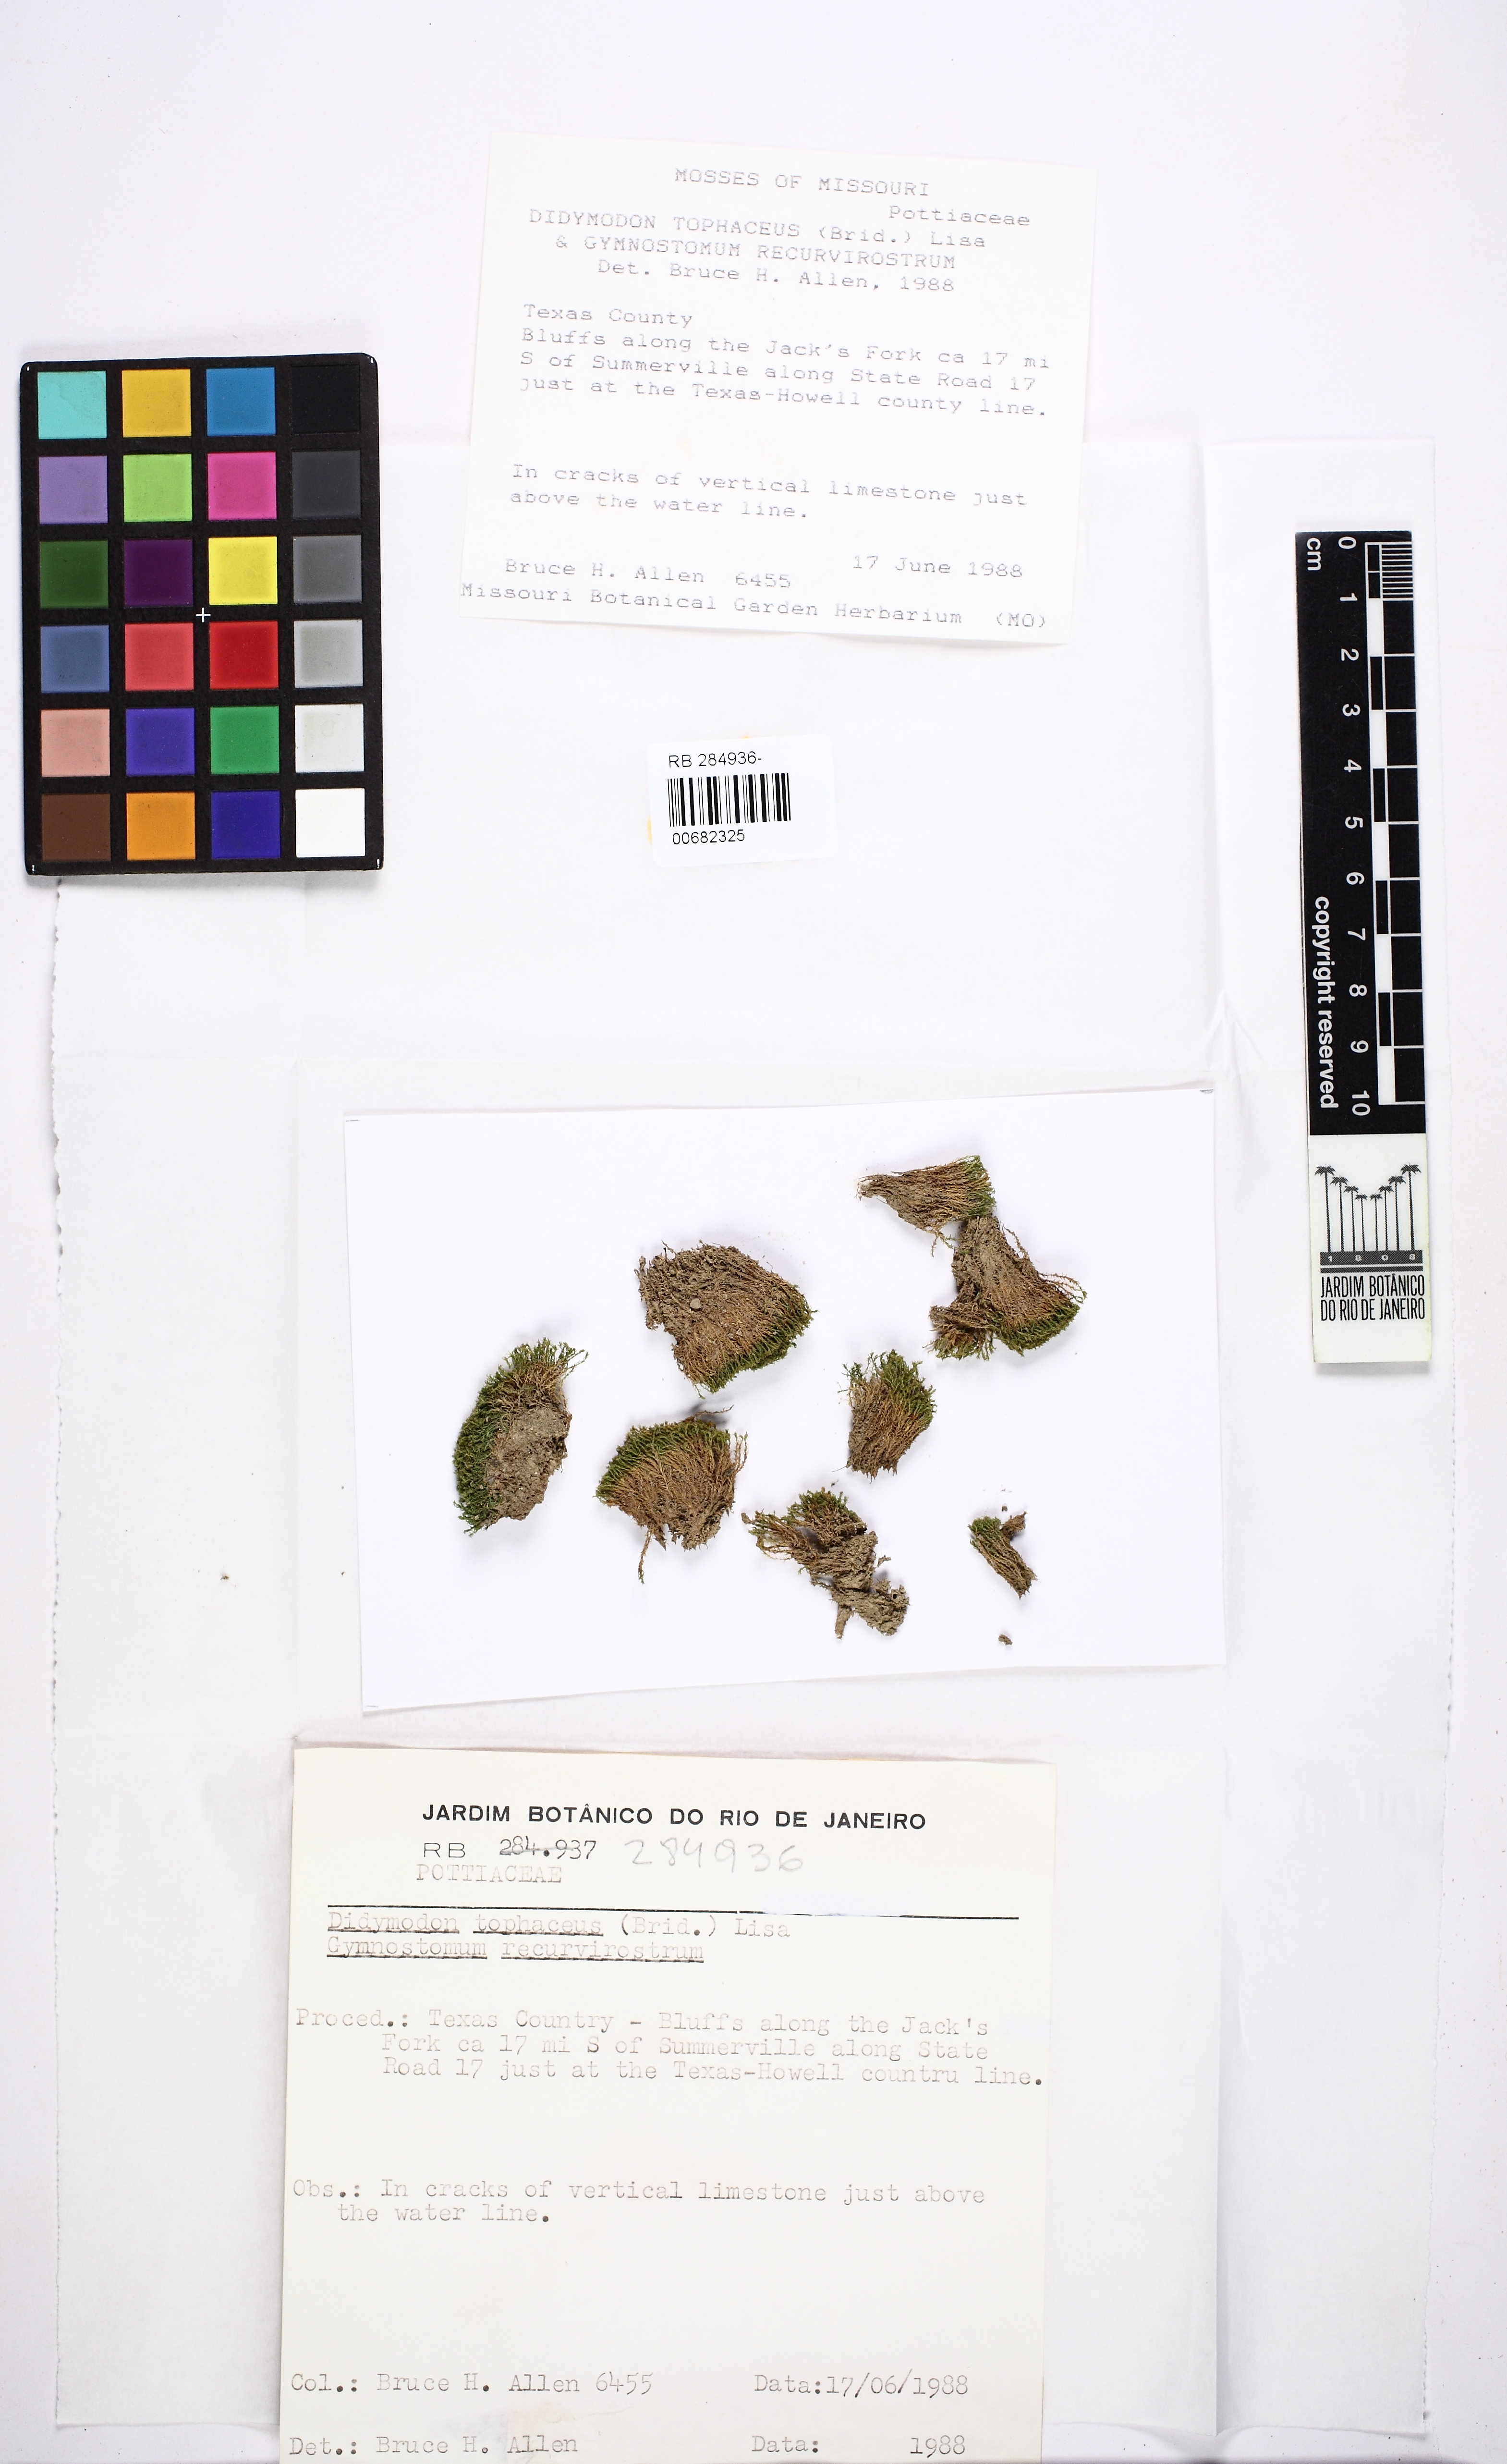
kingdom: Plantae
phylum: Bryophyta
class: Bryopsida
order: Pottiales
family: Pottiaceae
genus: Geheebia
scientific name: Geheebia tophacea
